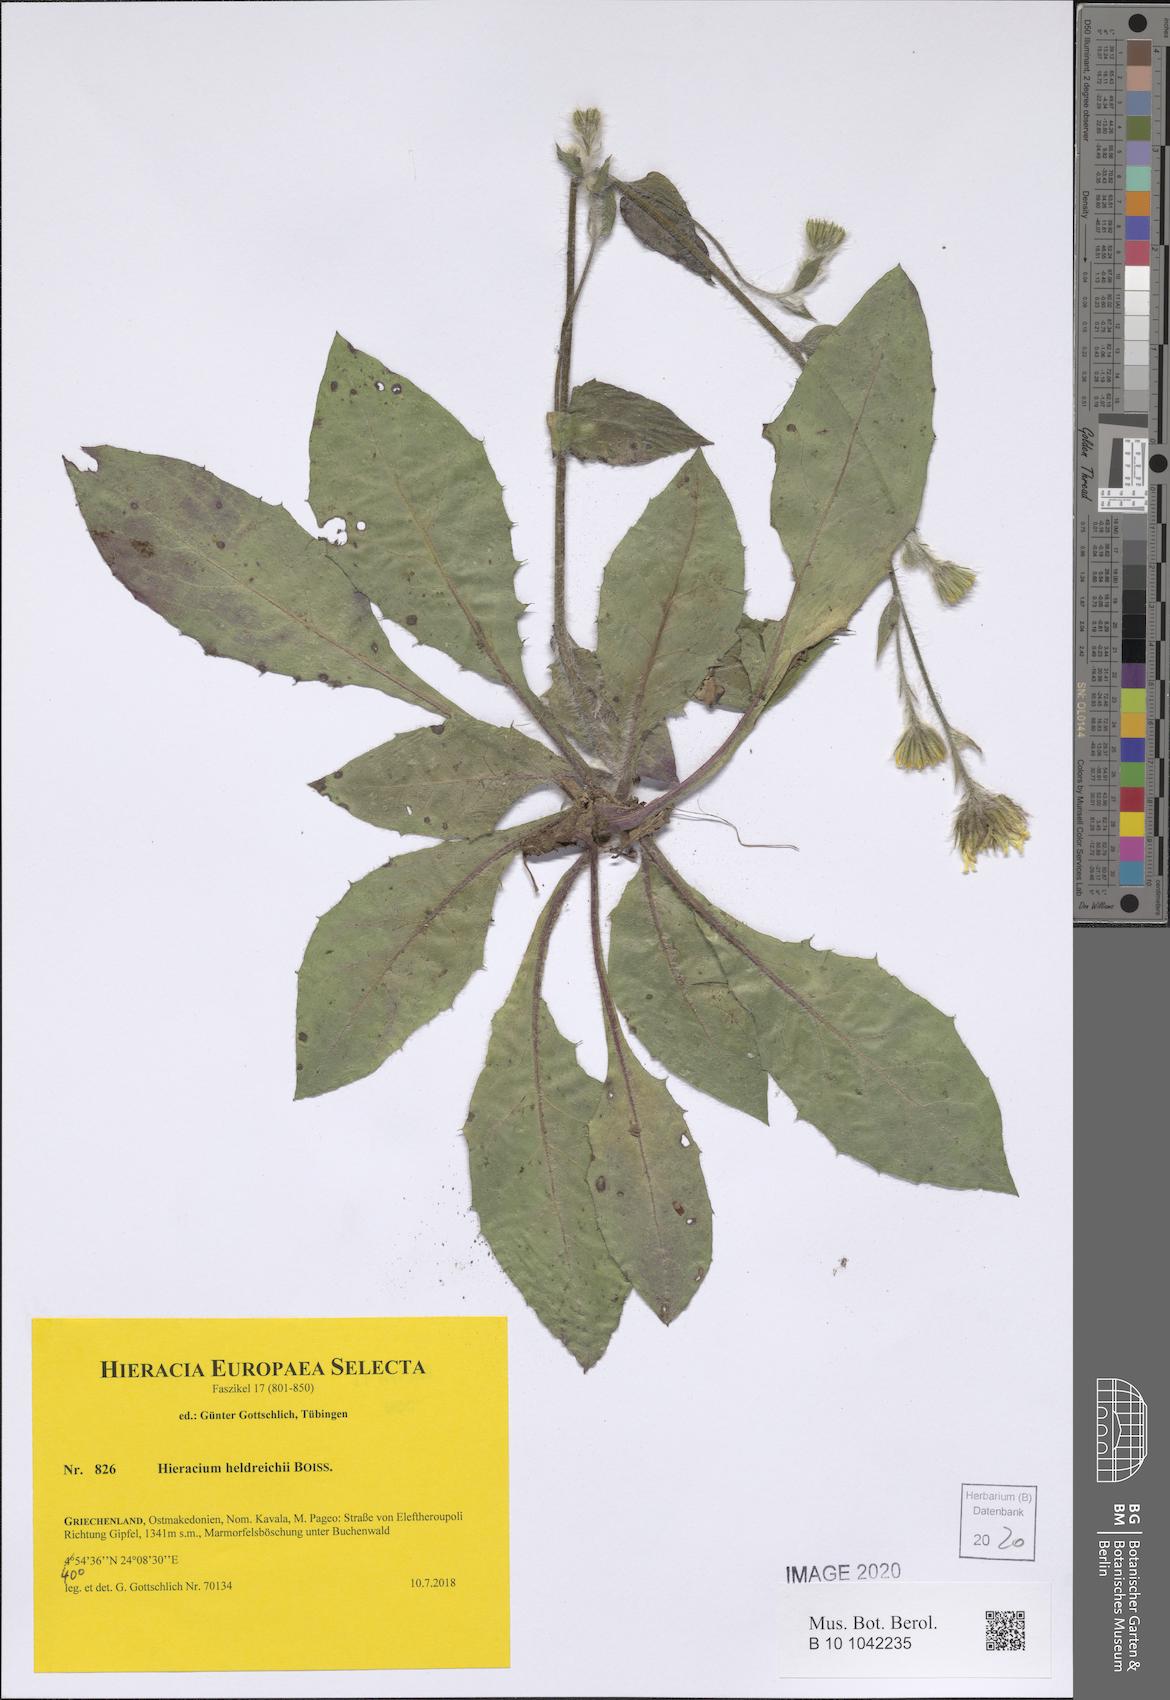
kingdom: Plantae
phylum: Tracheophyta
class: Magnoliopsida
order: Asterales
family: Asteraceae
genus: Hieracium
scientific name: Hieracium heldreichii
